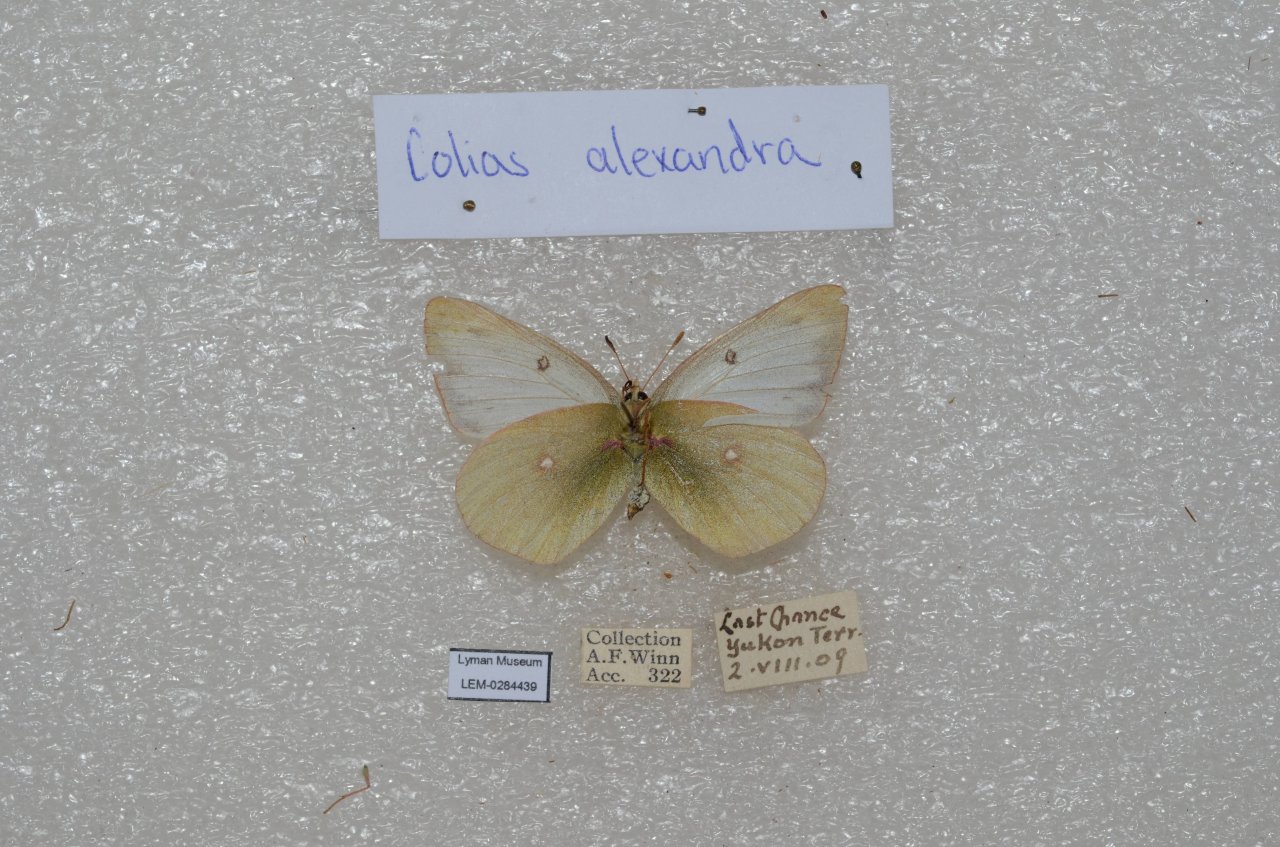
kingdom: Animalia
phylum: Arthropoda
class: Insecta
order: Lepidoptera
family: Pieridae
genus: Colias
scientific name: Colias
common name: Clouded Yellows
